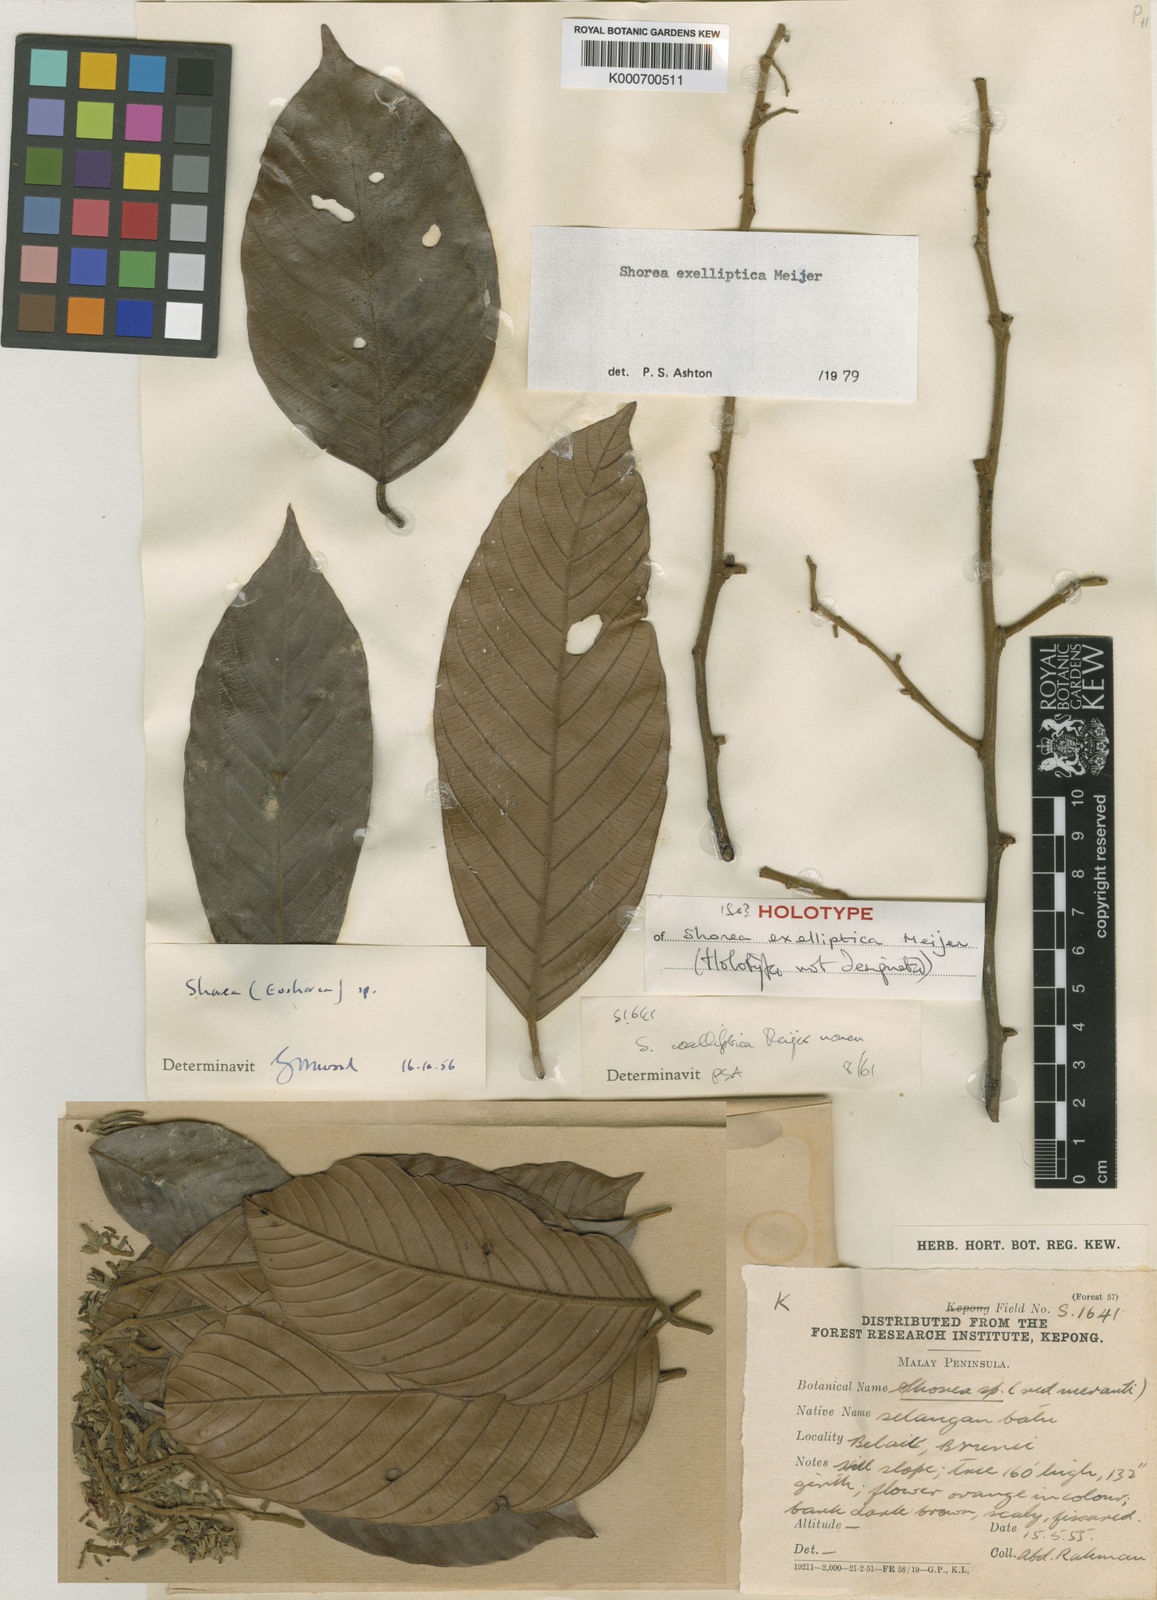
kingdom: Plantae
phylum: Tracheophyta
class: Magnoliopsida
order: Malvales
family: Dipterocarpaceae
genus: Shorea
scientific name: Shorea exelliptica
